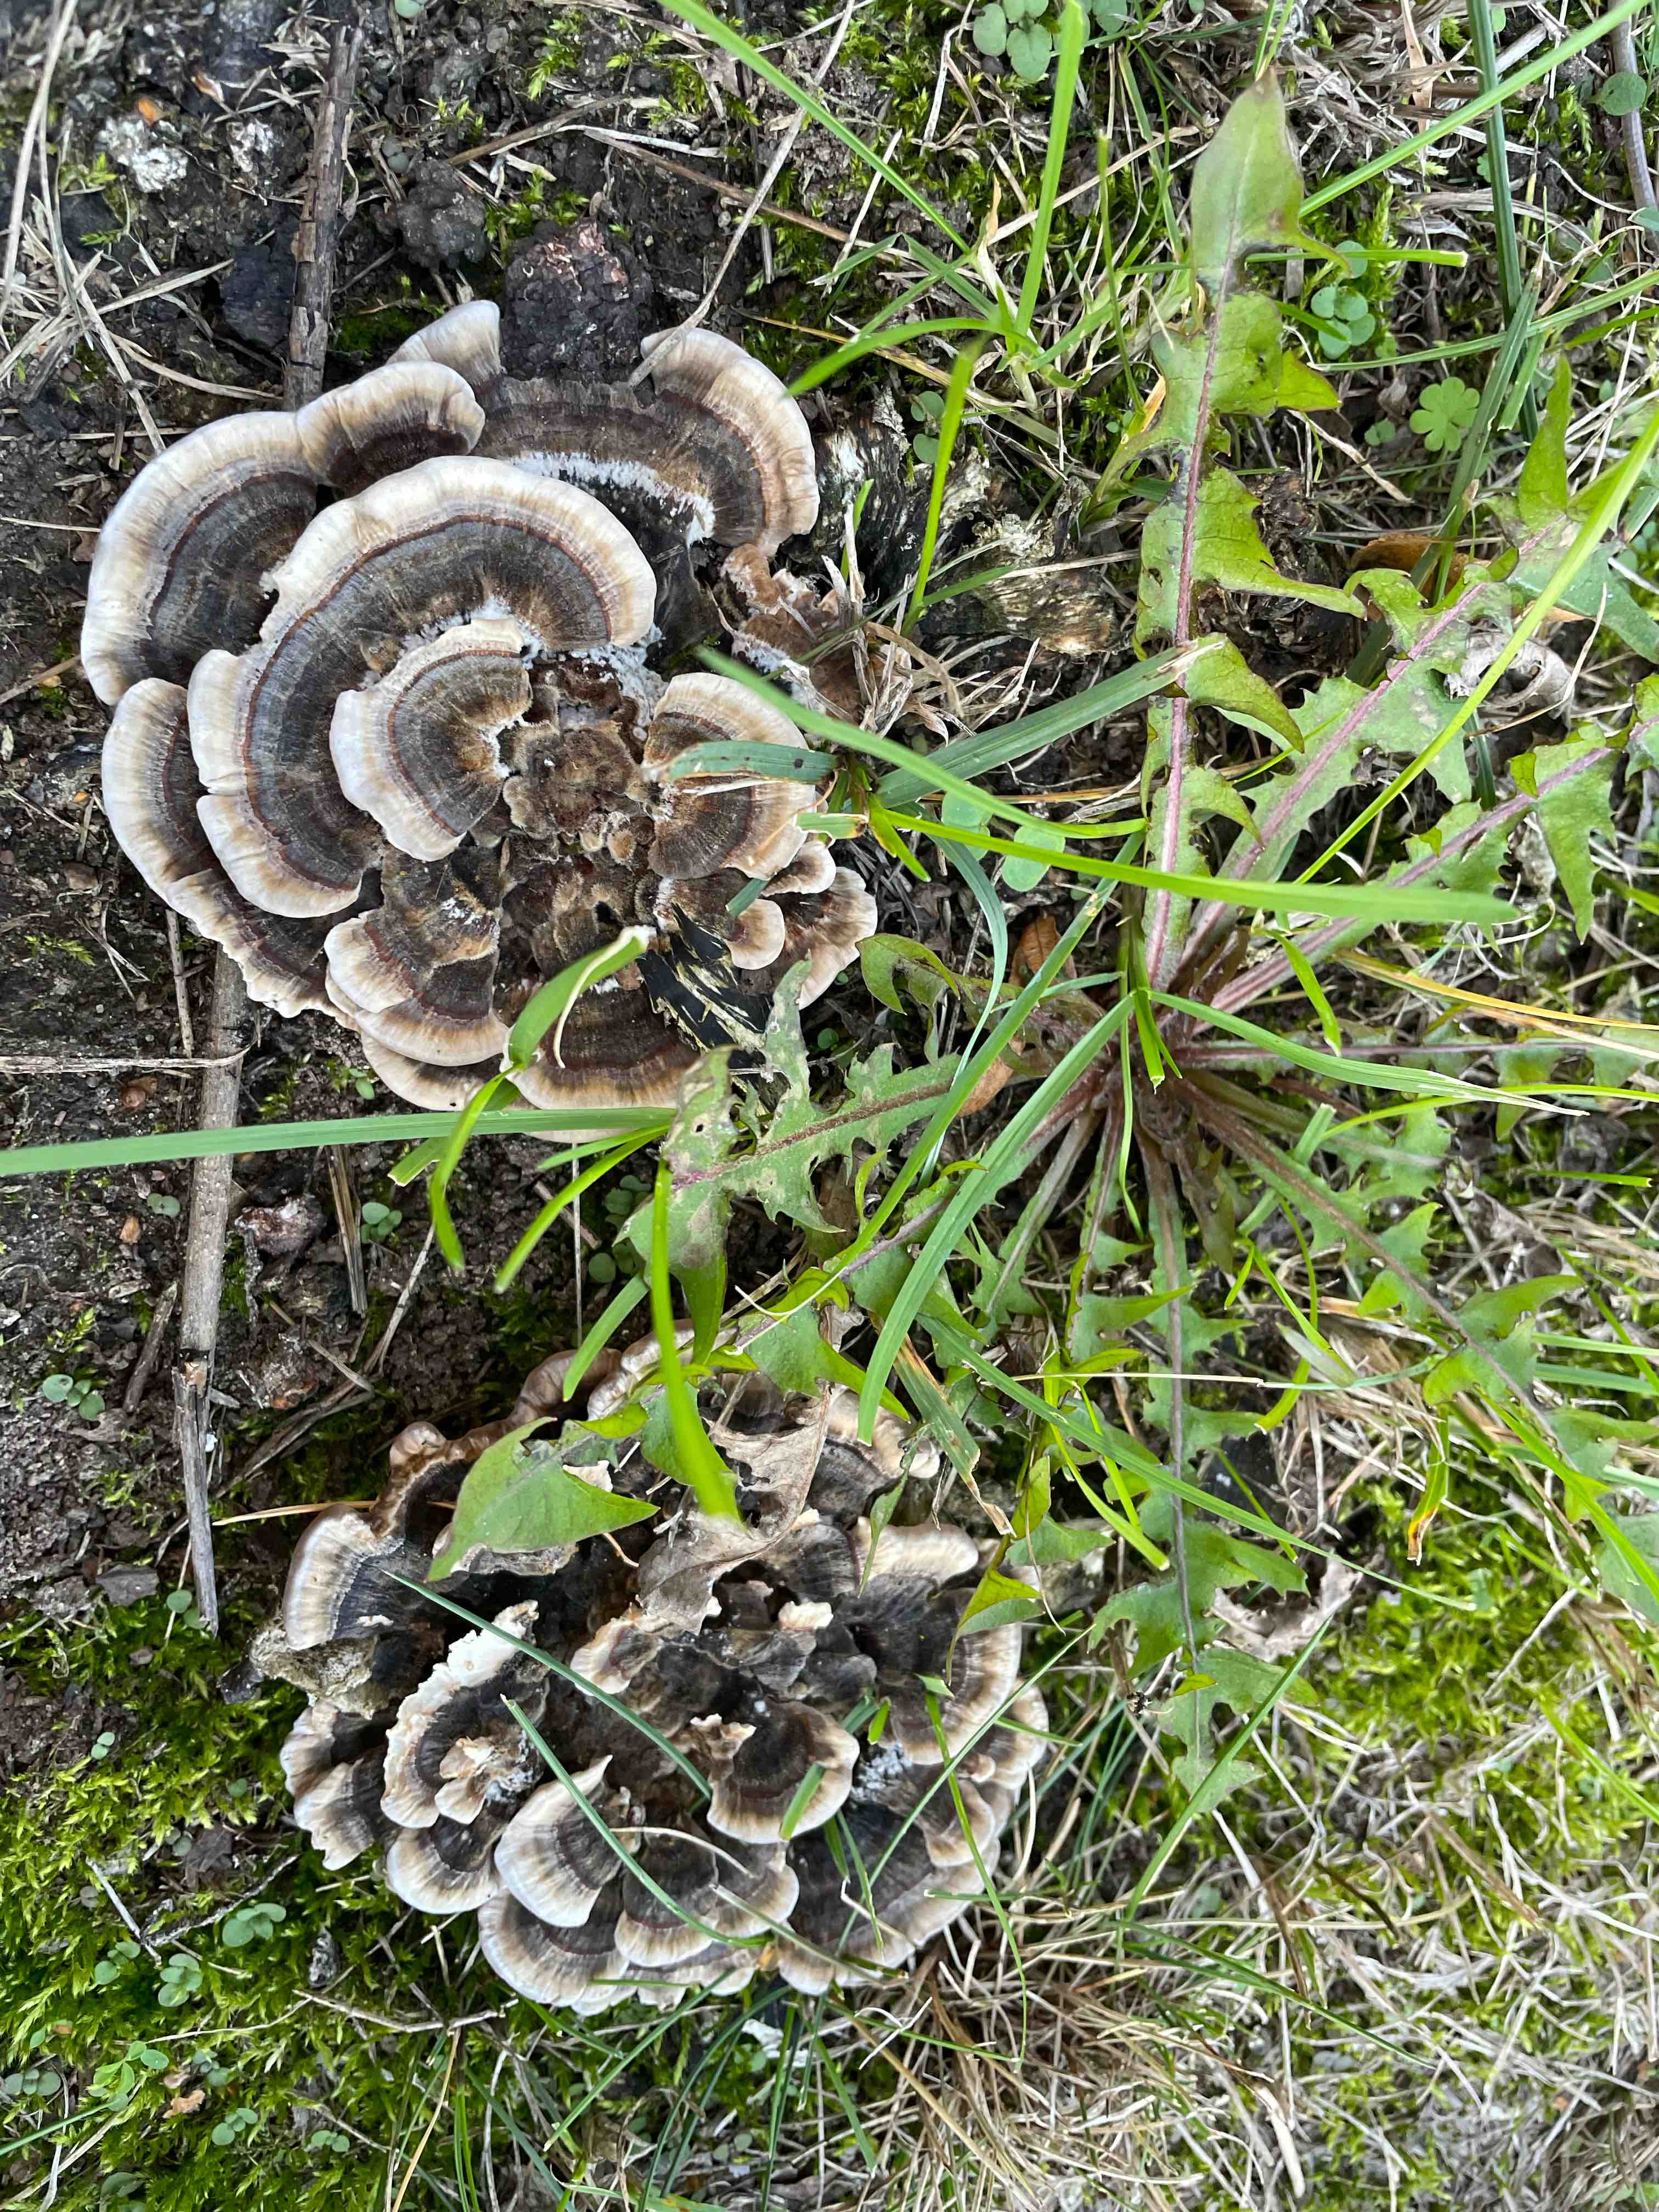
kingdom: Fungi
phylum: Basidiomycota
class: Agaricomycetes
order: Polyporales
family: Polyporaceae
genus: Trametes
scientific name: Trametes versicolor
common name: broget læderporesvamp
